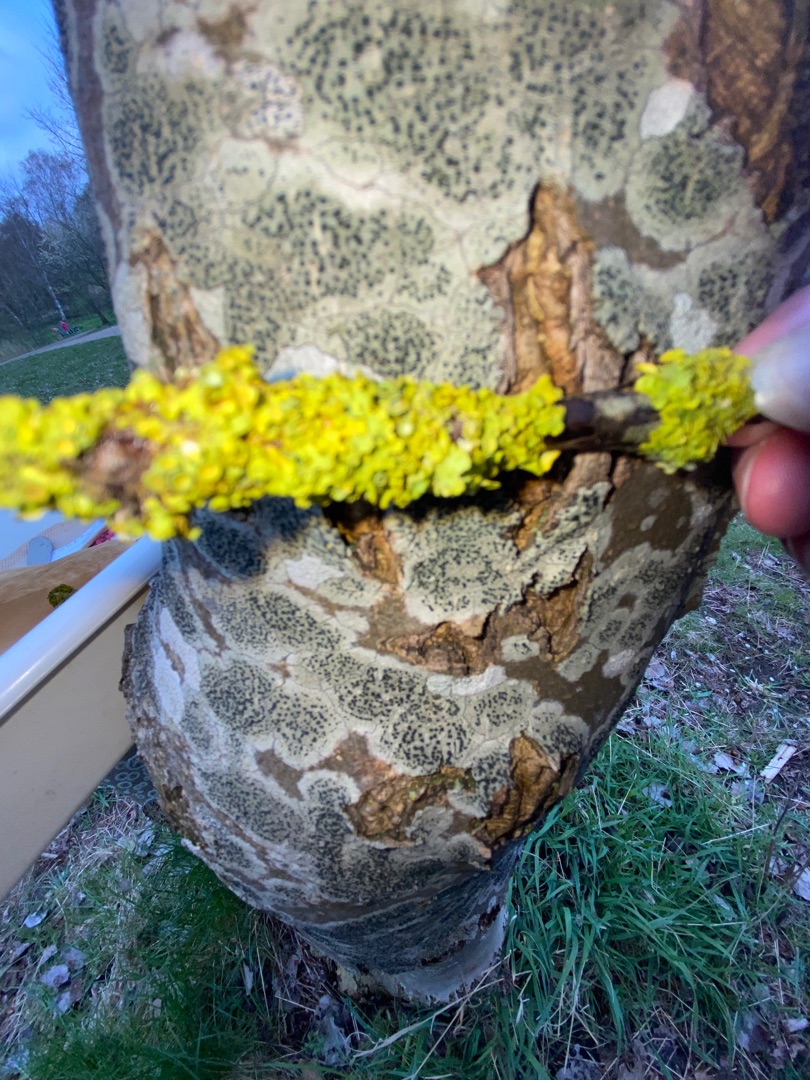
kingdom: Fungi
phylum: Ascomycota
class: Lecanoromycetes
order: Teloschistales
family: Teloschistaceae
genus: Xanthoria
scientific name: Xanthoria parietina
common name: Almindelig væggelav
